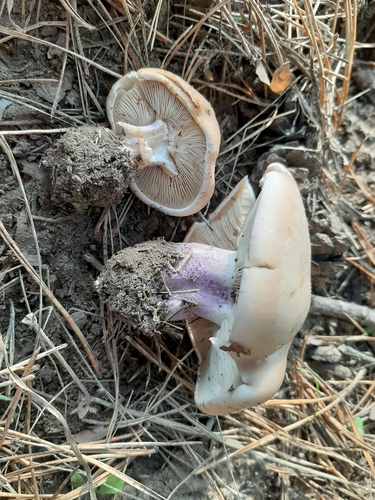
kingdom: Fungi
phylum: Basidiomycota
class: Agaricomycetes
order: Agaricales
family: Tricholomataceae
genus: Lepista
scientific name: Lepista personata
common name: Field blewit
